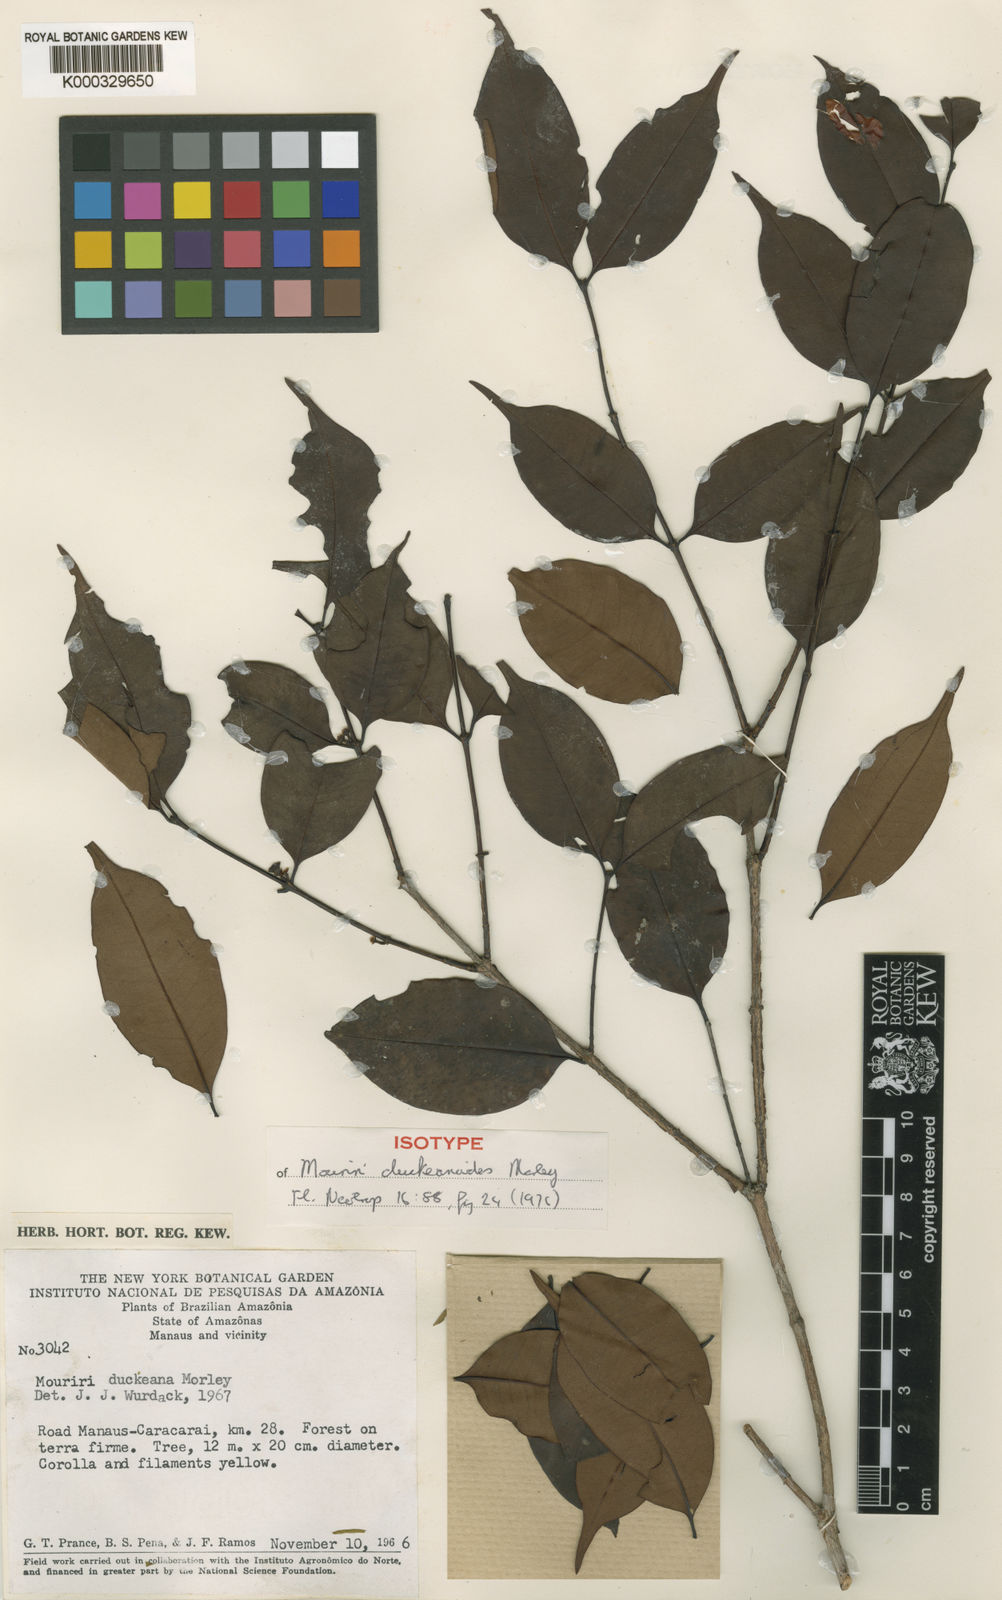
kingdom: Plantae
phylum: Tracheophyta
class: Magnoliopsida
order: Myrtales
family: Melastomataceae
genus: Mouriri
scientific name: Mouriri duckeanoides
